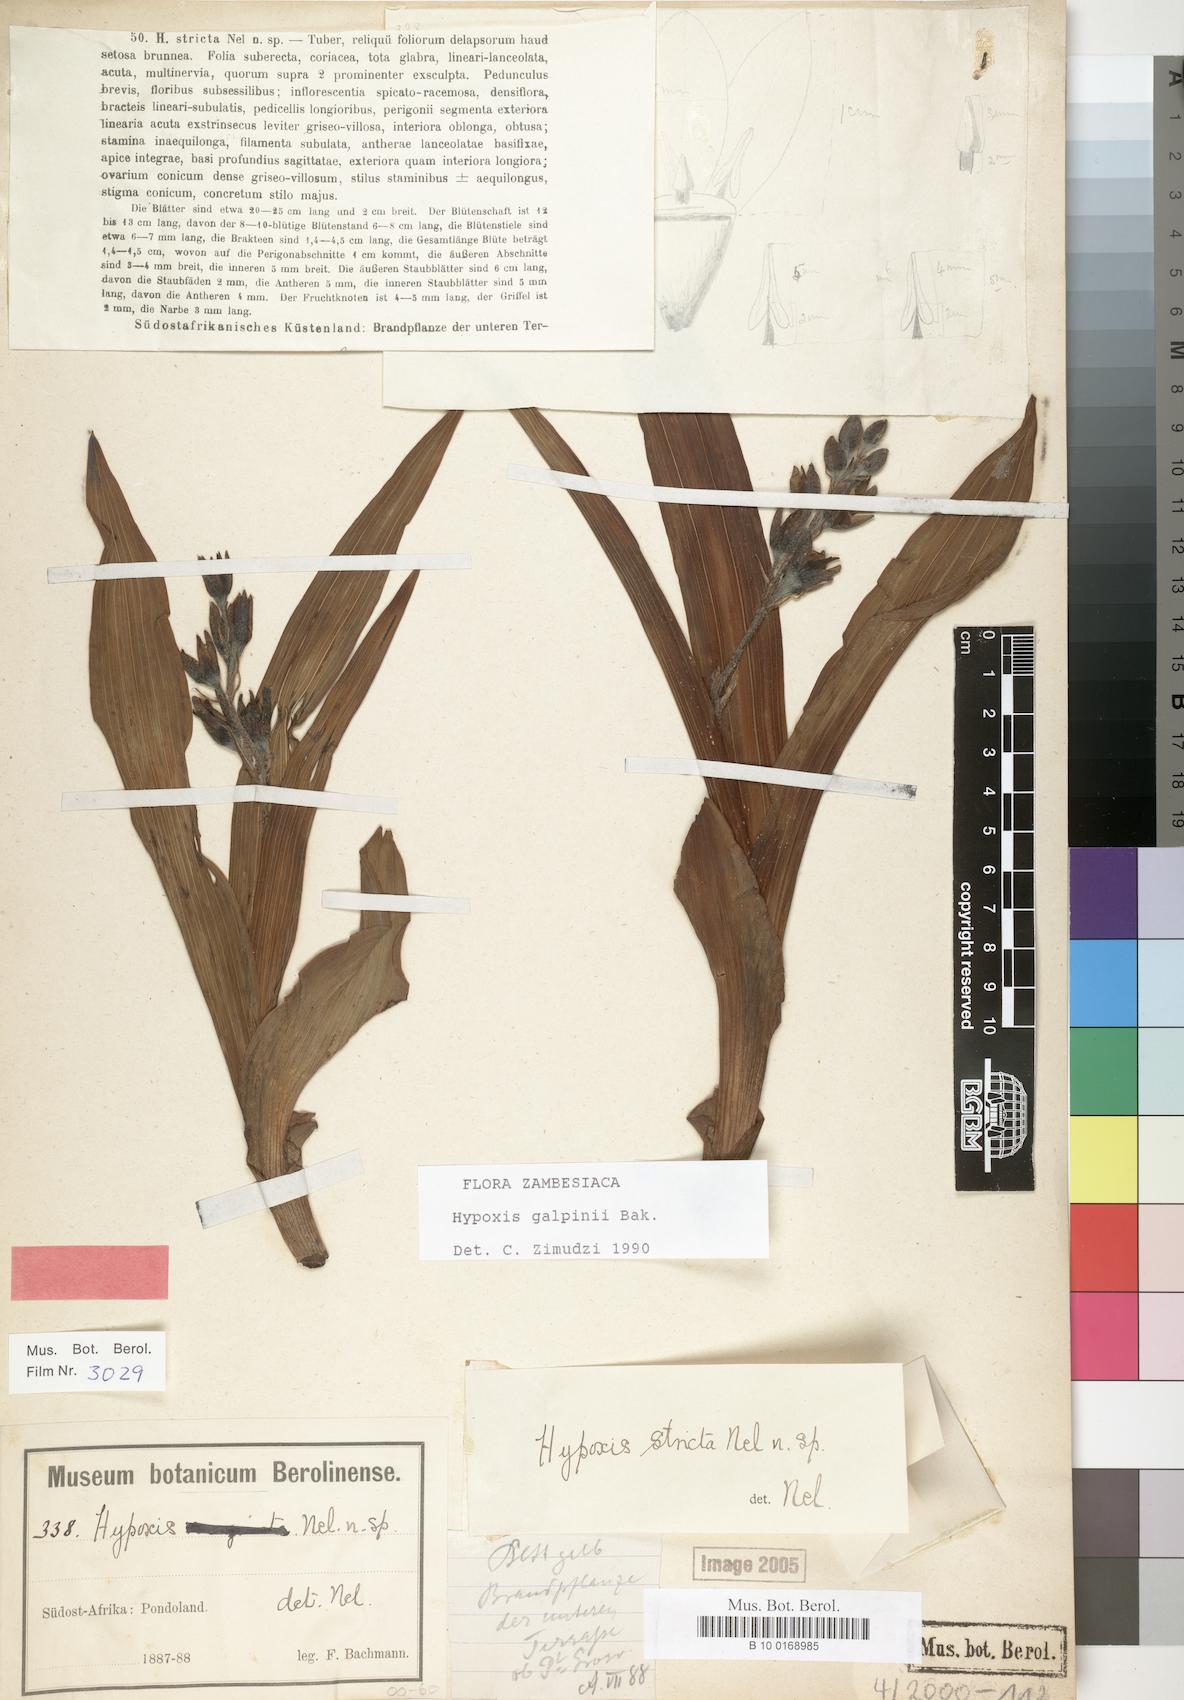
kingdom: Plantae
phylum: Tracheophyta
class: Liliopsida
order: Asparagales
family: Hypoxidaceae
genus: Hypoxis
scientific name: Hypoxis galpinii
